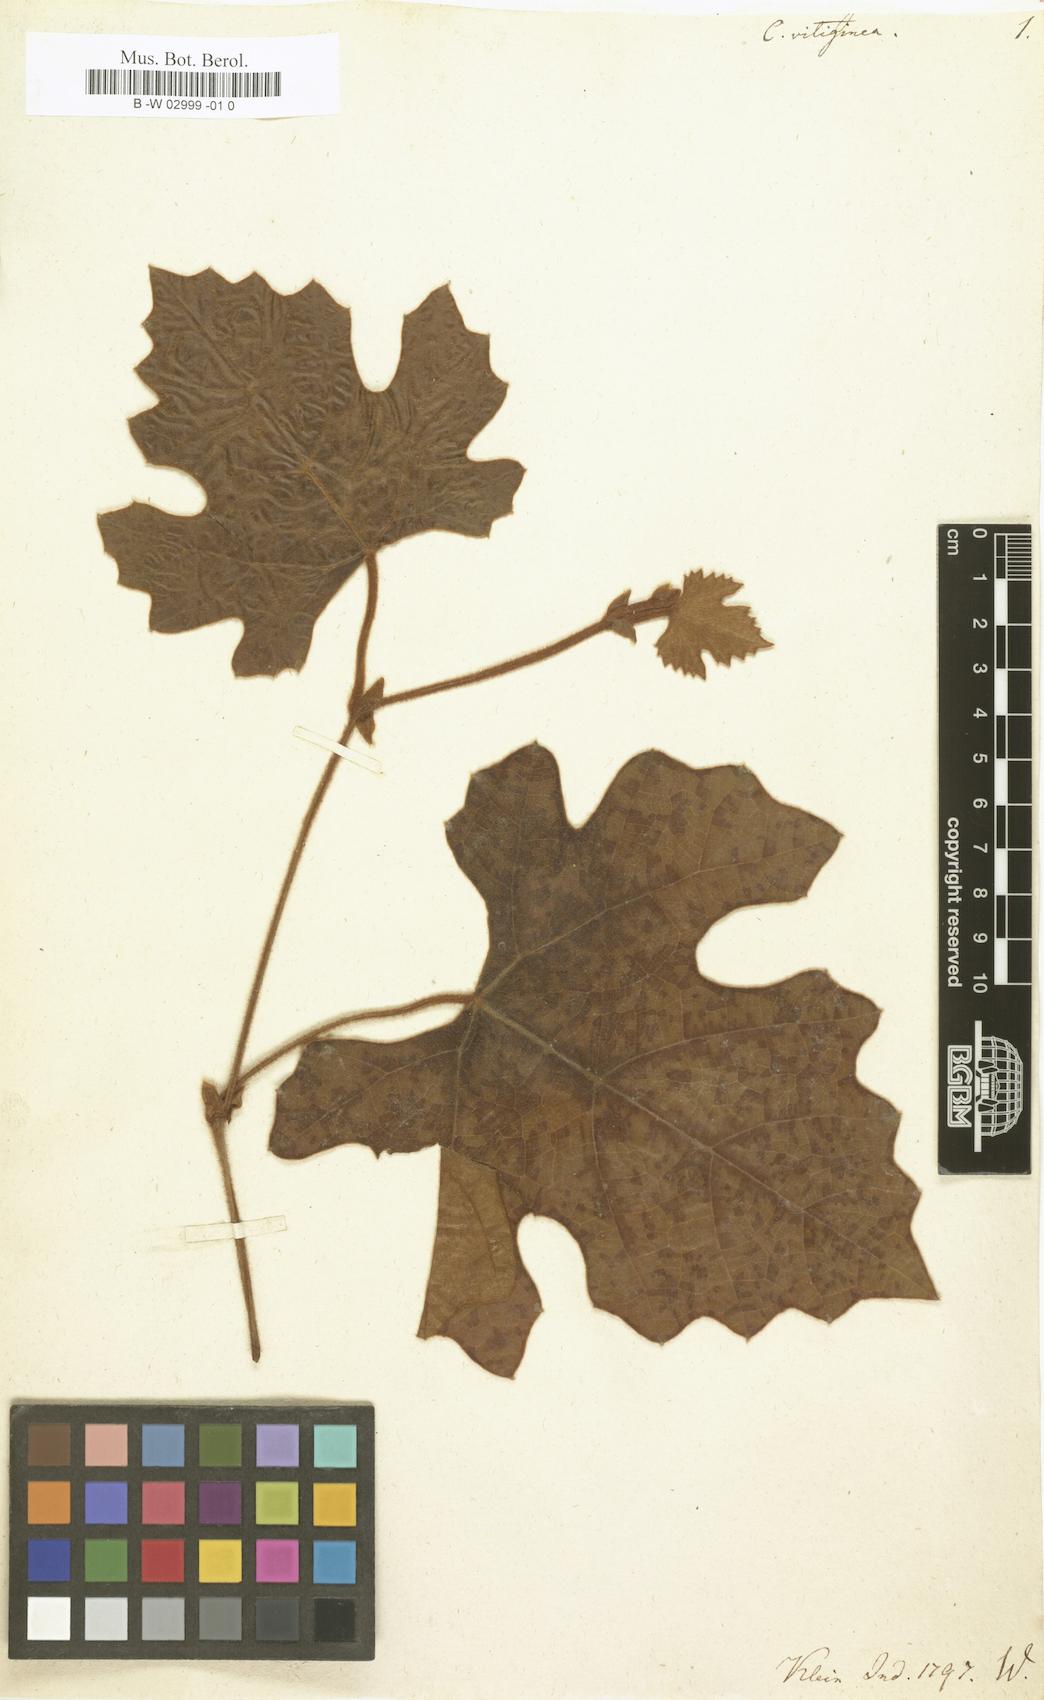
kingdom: Plantae
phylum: Tracheophyta
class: Magnoliopsida
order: Vitales
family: Vitaceae
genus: Cissus
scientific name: Cissus vitiginea
